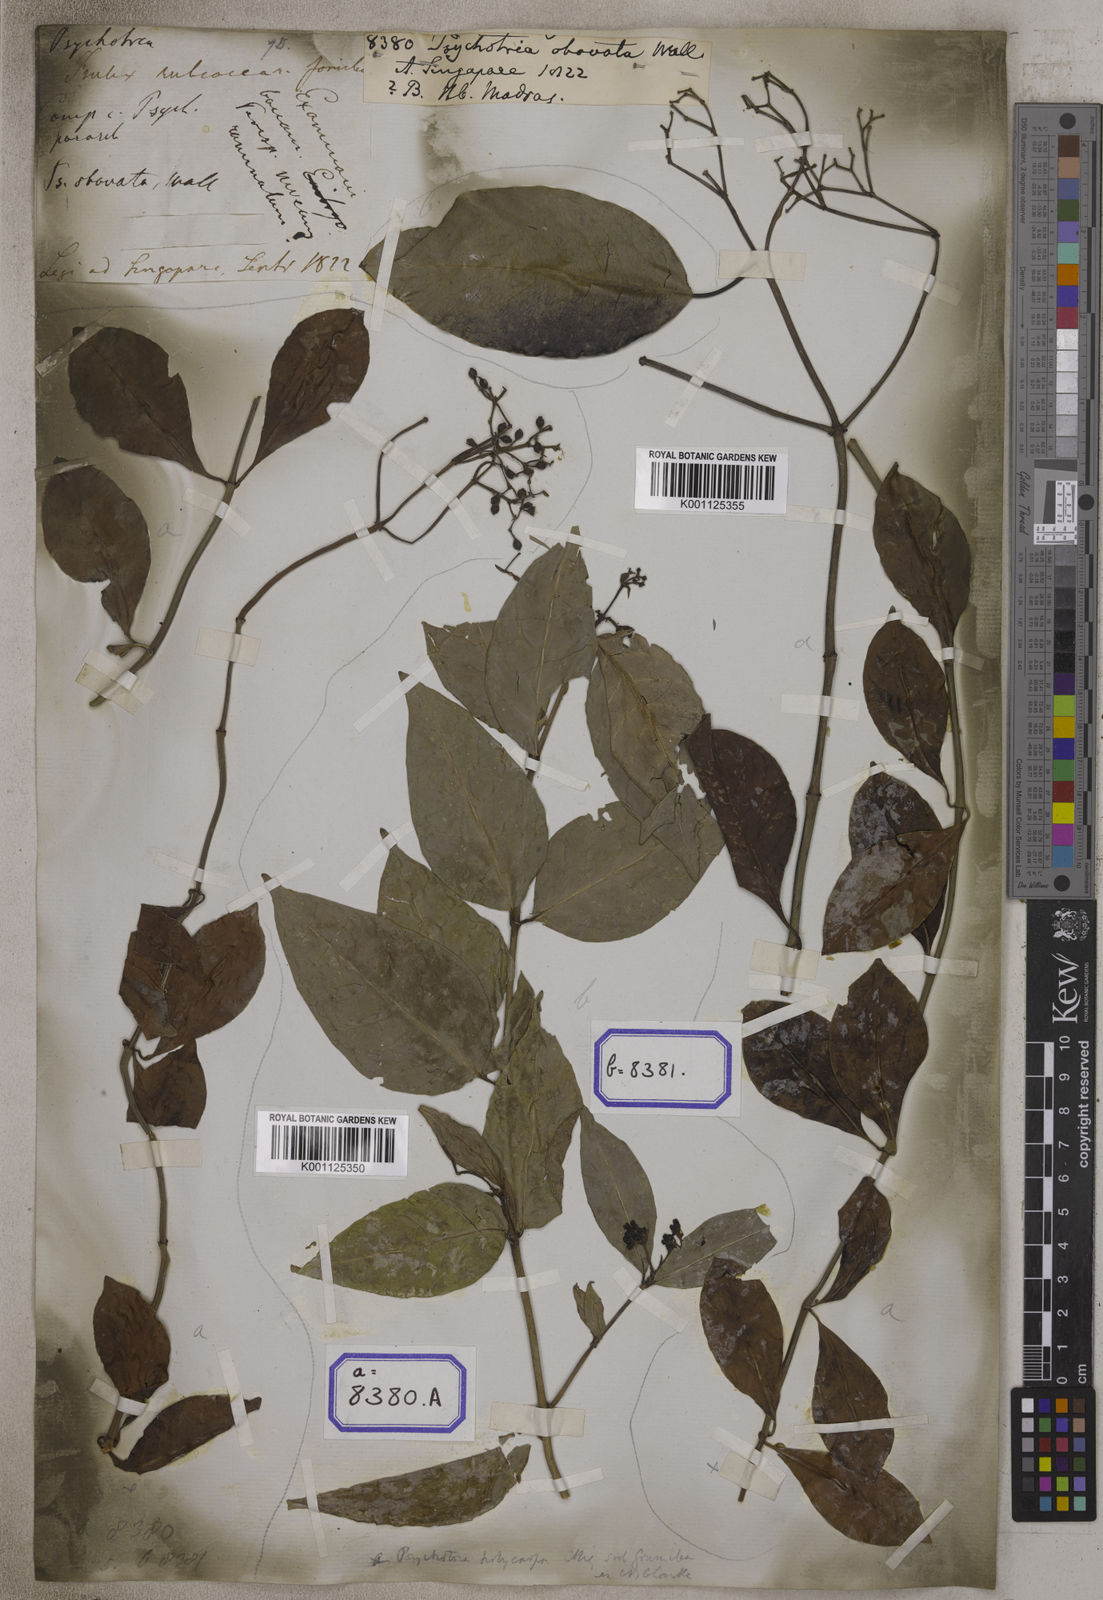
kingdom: Plantae
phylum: Tracheophyta
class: Magnoliopsida
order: Gentianales
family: Rubiaceae
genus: Psychotria
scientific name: Psychotria
